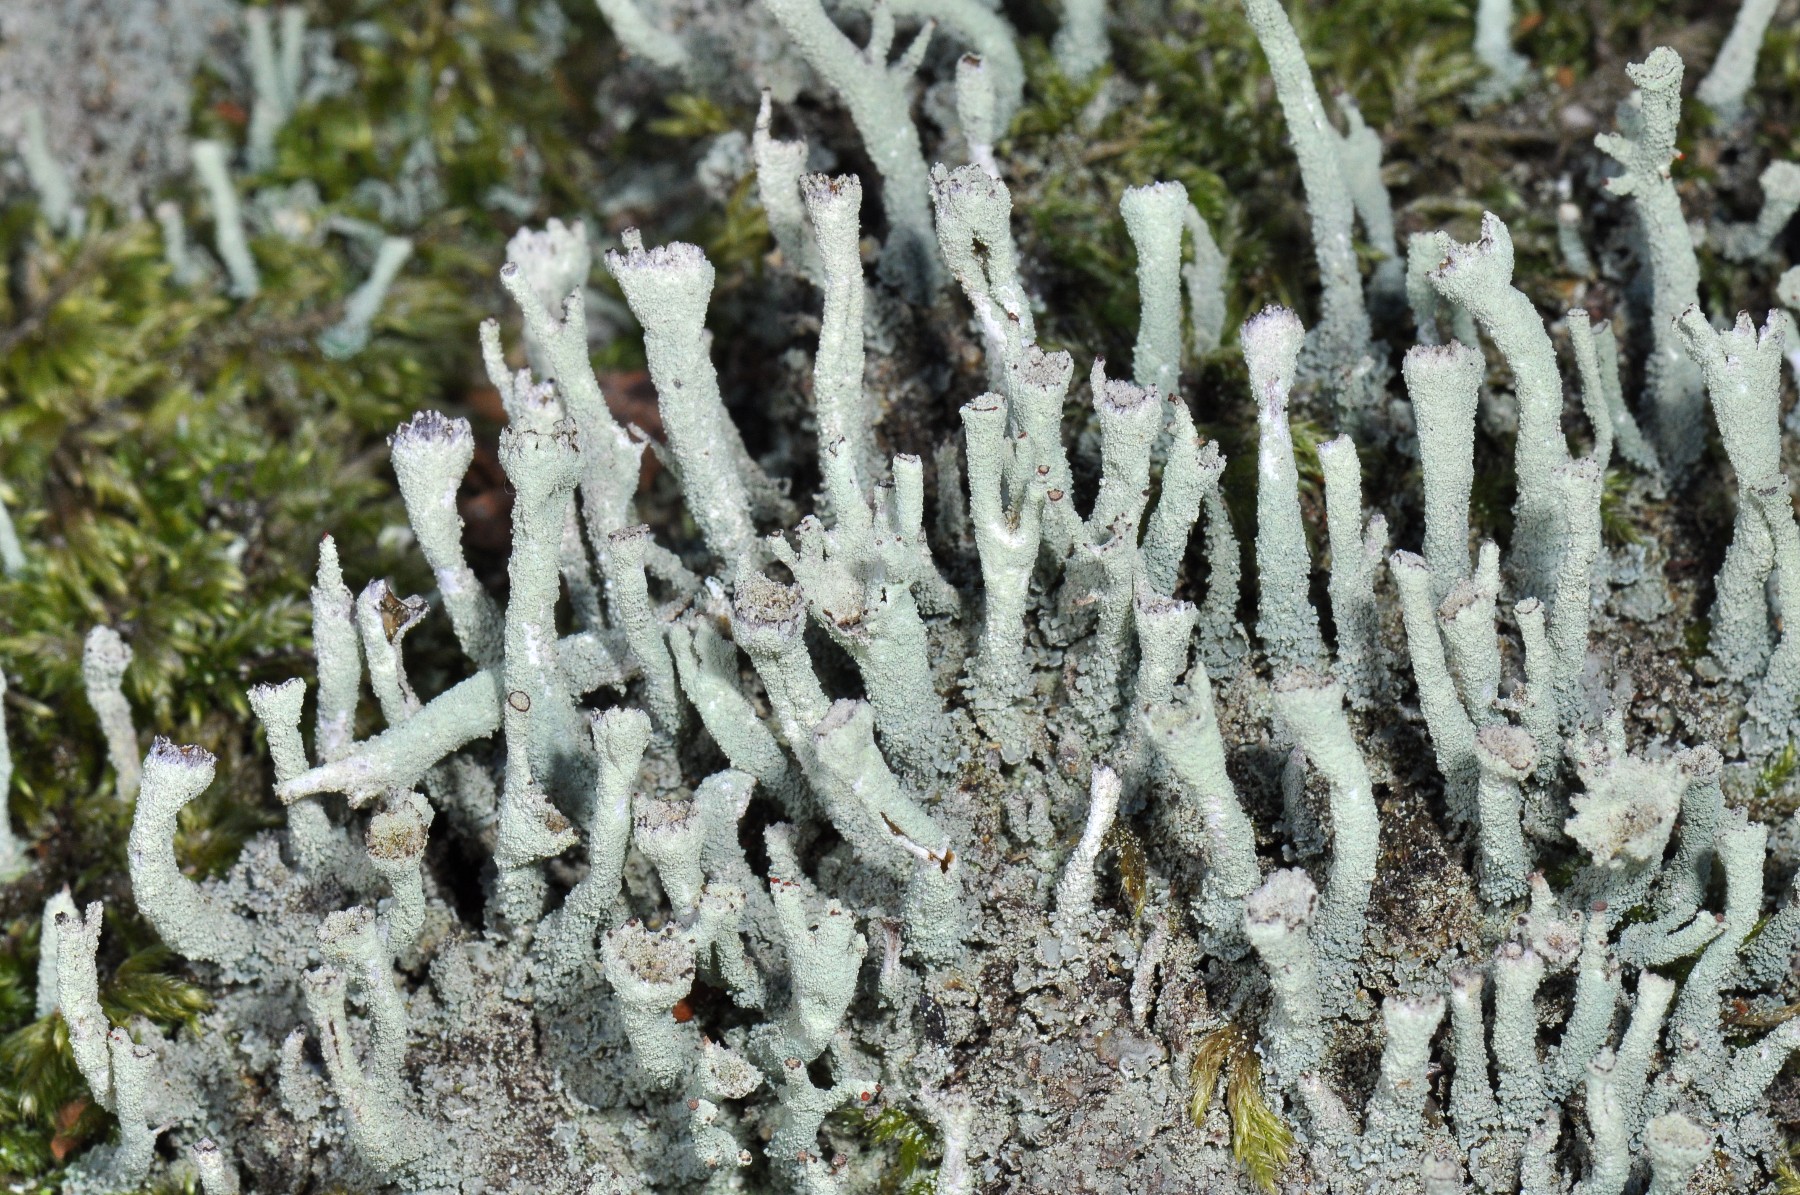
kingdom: Fungi
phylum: Ascomycota
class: Lecanoromycetes
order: Lecanorales
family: Cladoniaceae
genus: Cladonia
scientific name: Cladonia polydactyla
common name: vifte-bægerlav
